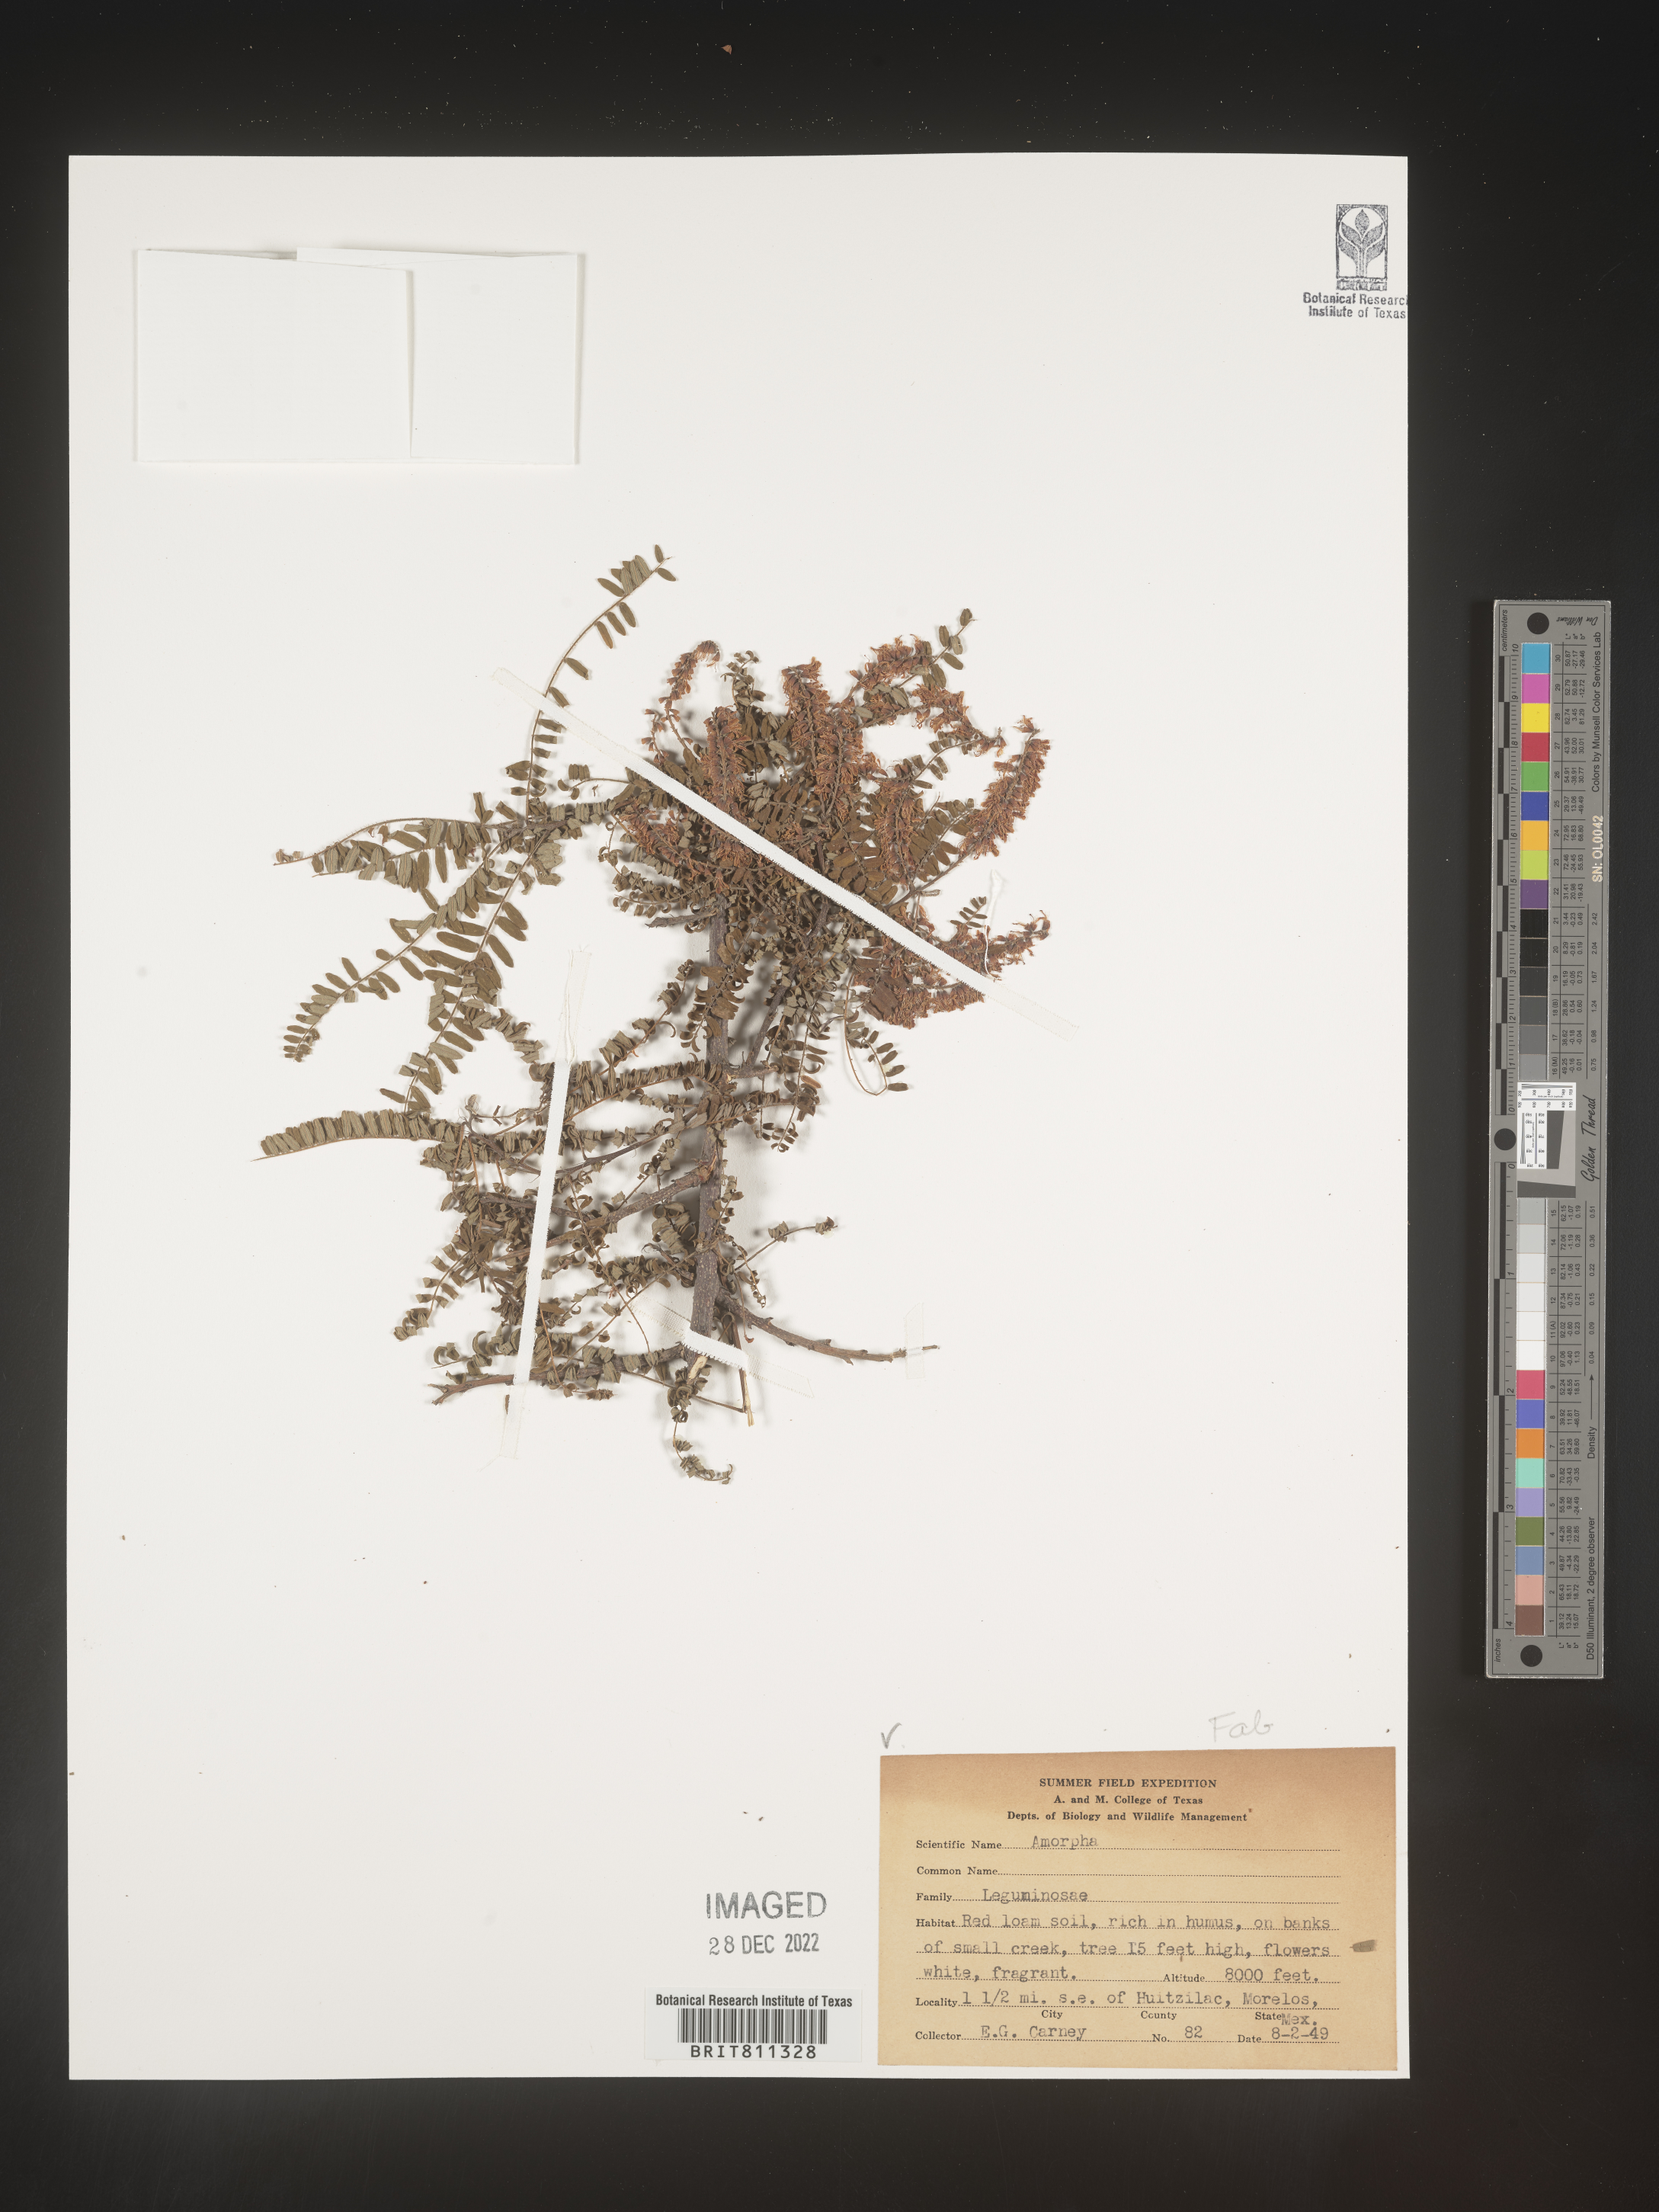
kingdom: Plantae
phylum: Tracheophyta
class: Magnoliopsida
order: Fabales
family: Fabaceae
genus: Amorpha
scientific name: Amorpha
